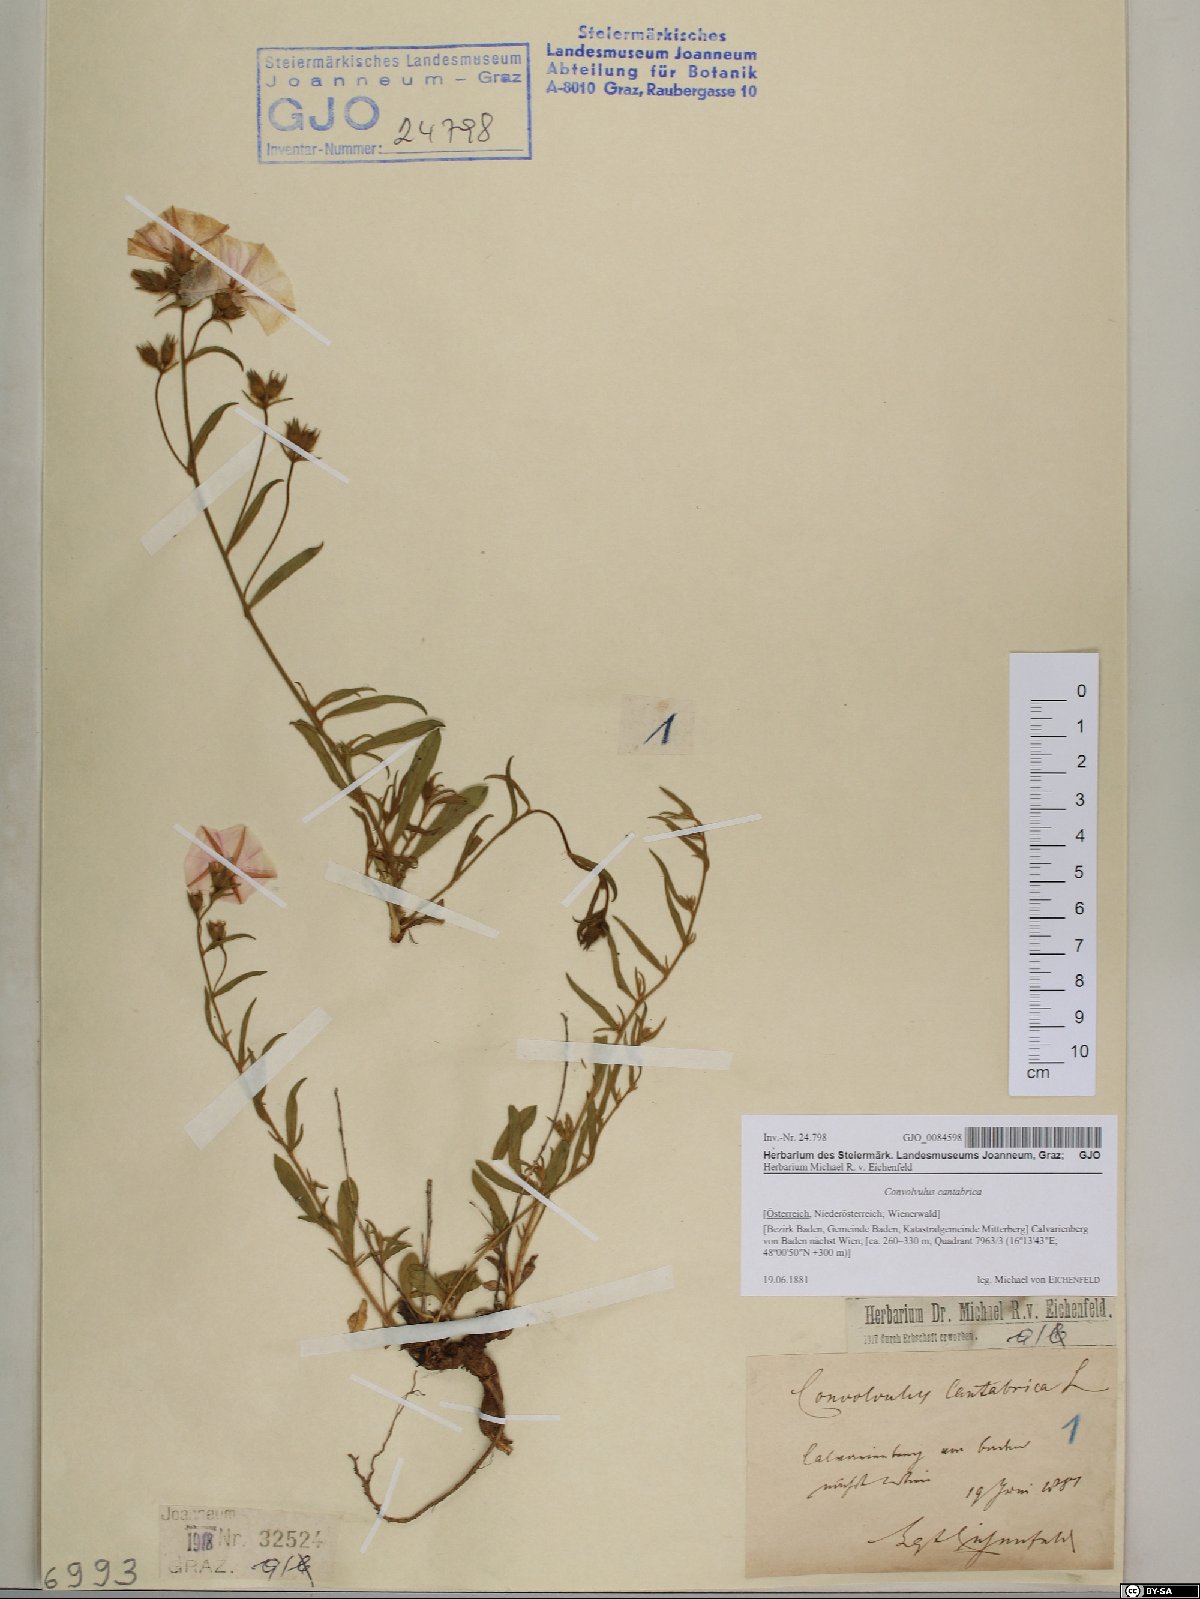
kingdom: Plantae
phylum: Tracheophyta
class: Magnoliopsida
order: Solanales
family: Convolvulaceae
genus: Convolvulus
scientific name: Convolvulus cantabrica
